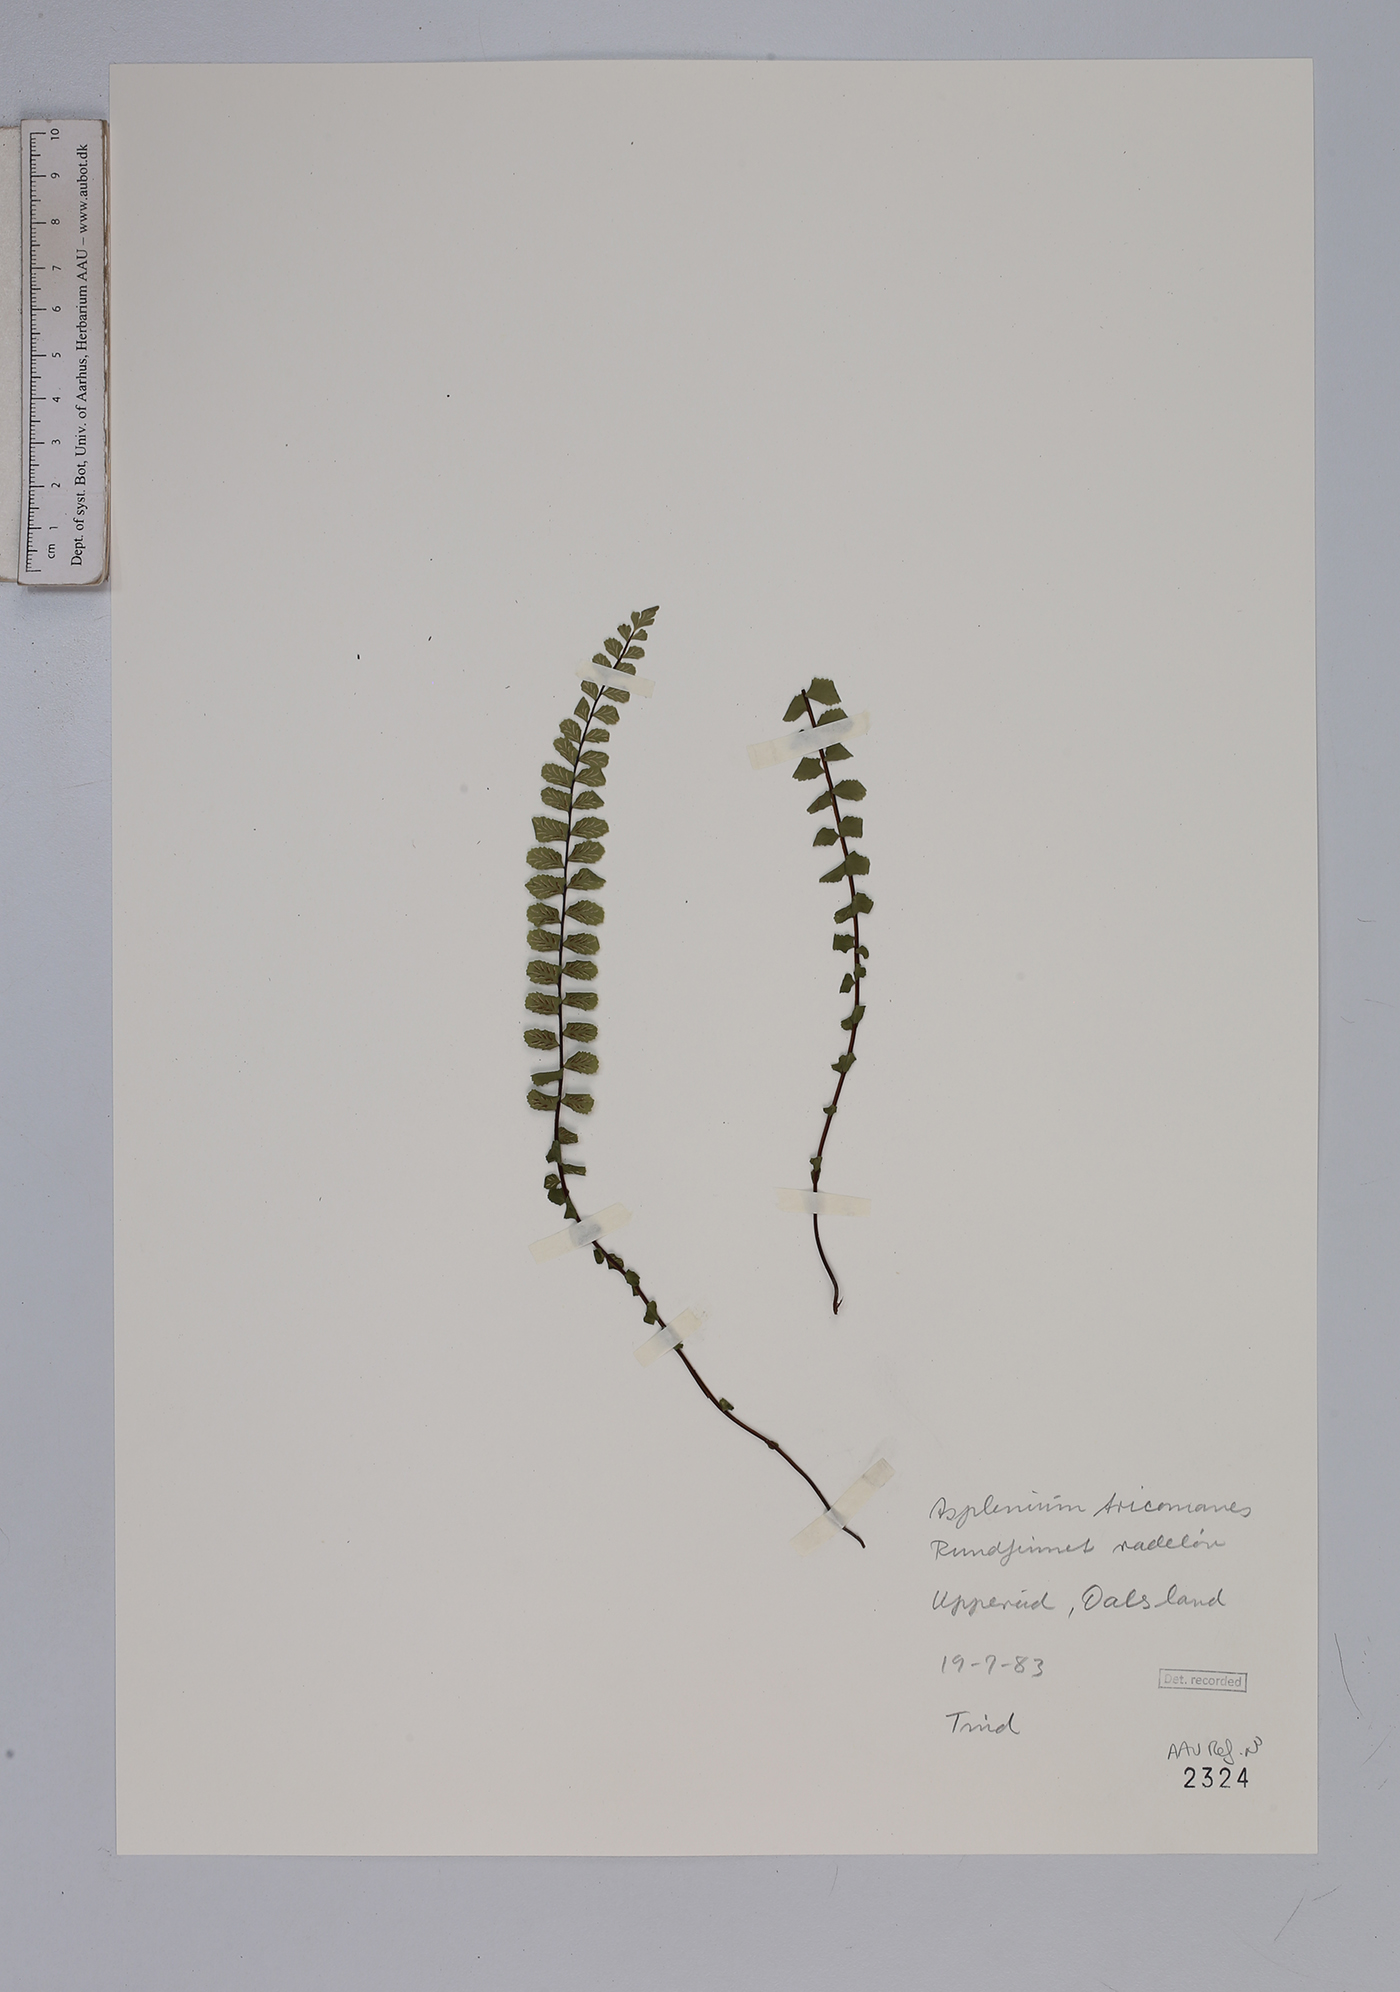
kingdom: Plantae
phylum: Tracheophyta
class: Polypodiopsida
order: Polypodiales
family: Aspleniaceae
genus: Asplenium
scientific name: Asplenium trichomanes
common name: Maidenhair spleenwort
